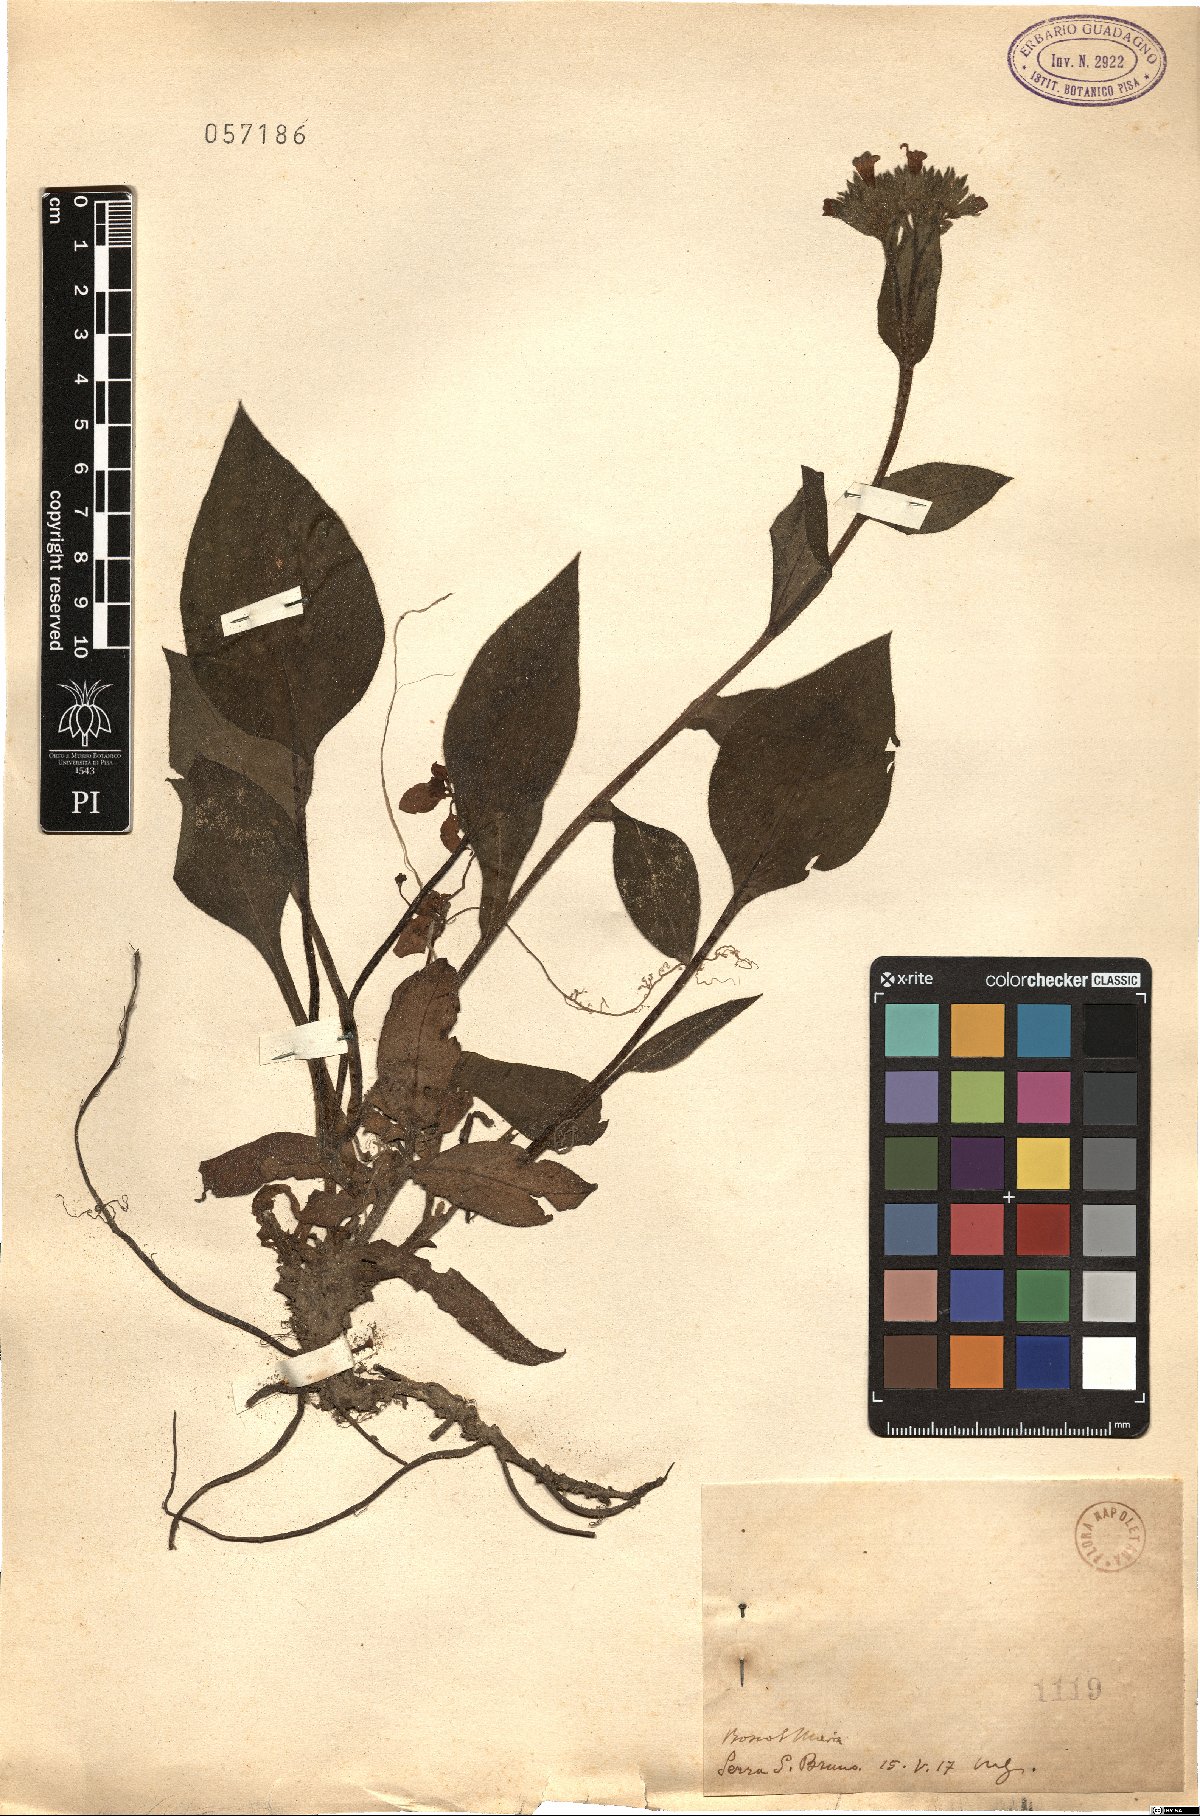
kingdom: Plantae
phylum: Tracheophyta
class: Magnoliopsida
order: Boraginales
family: Boraginaceae
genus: Pulmonaria
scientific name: Pulmonaria
